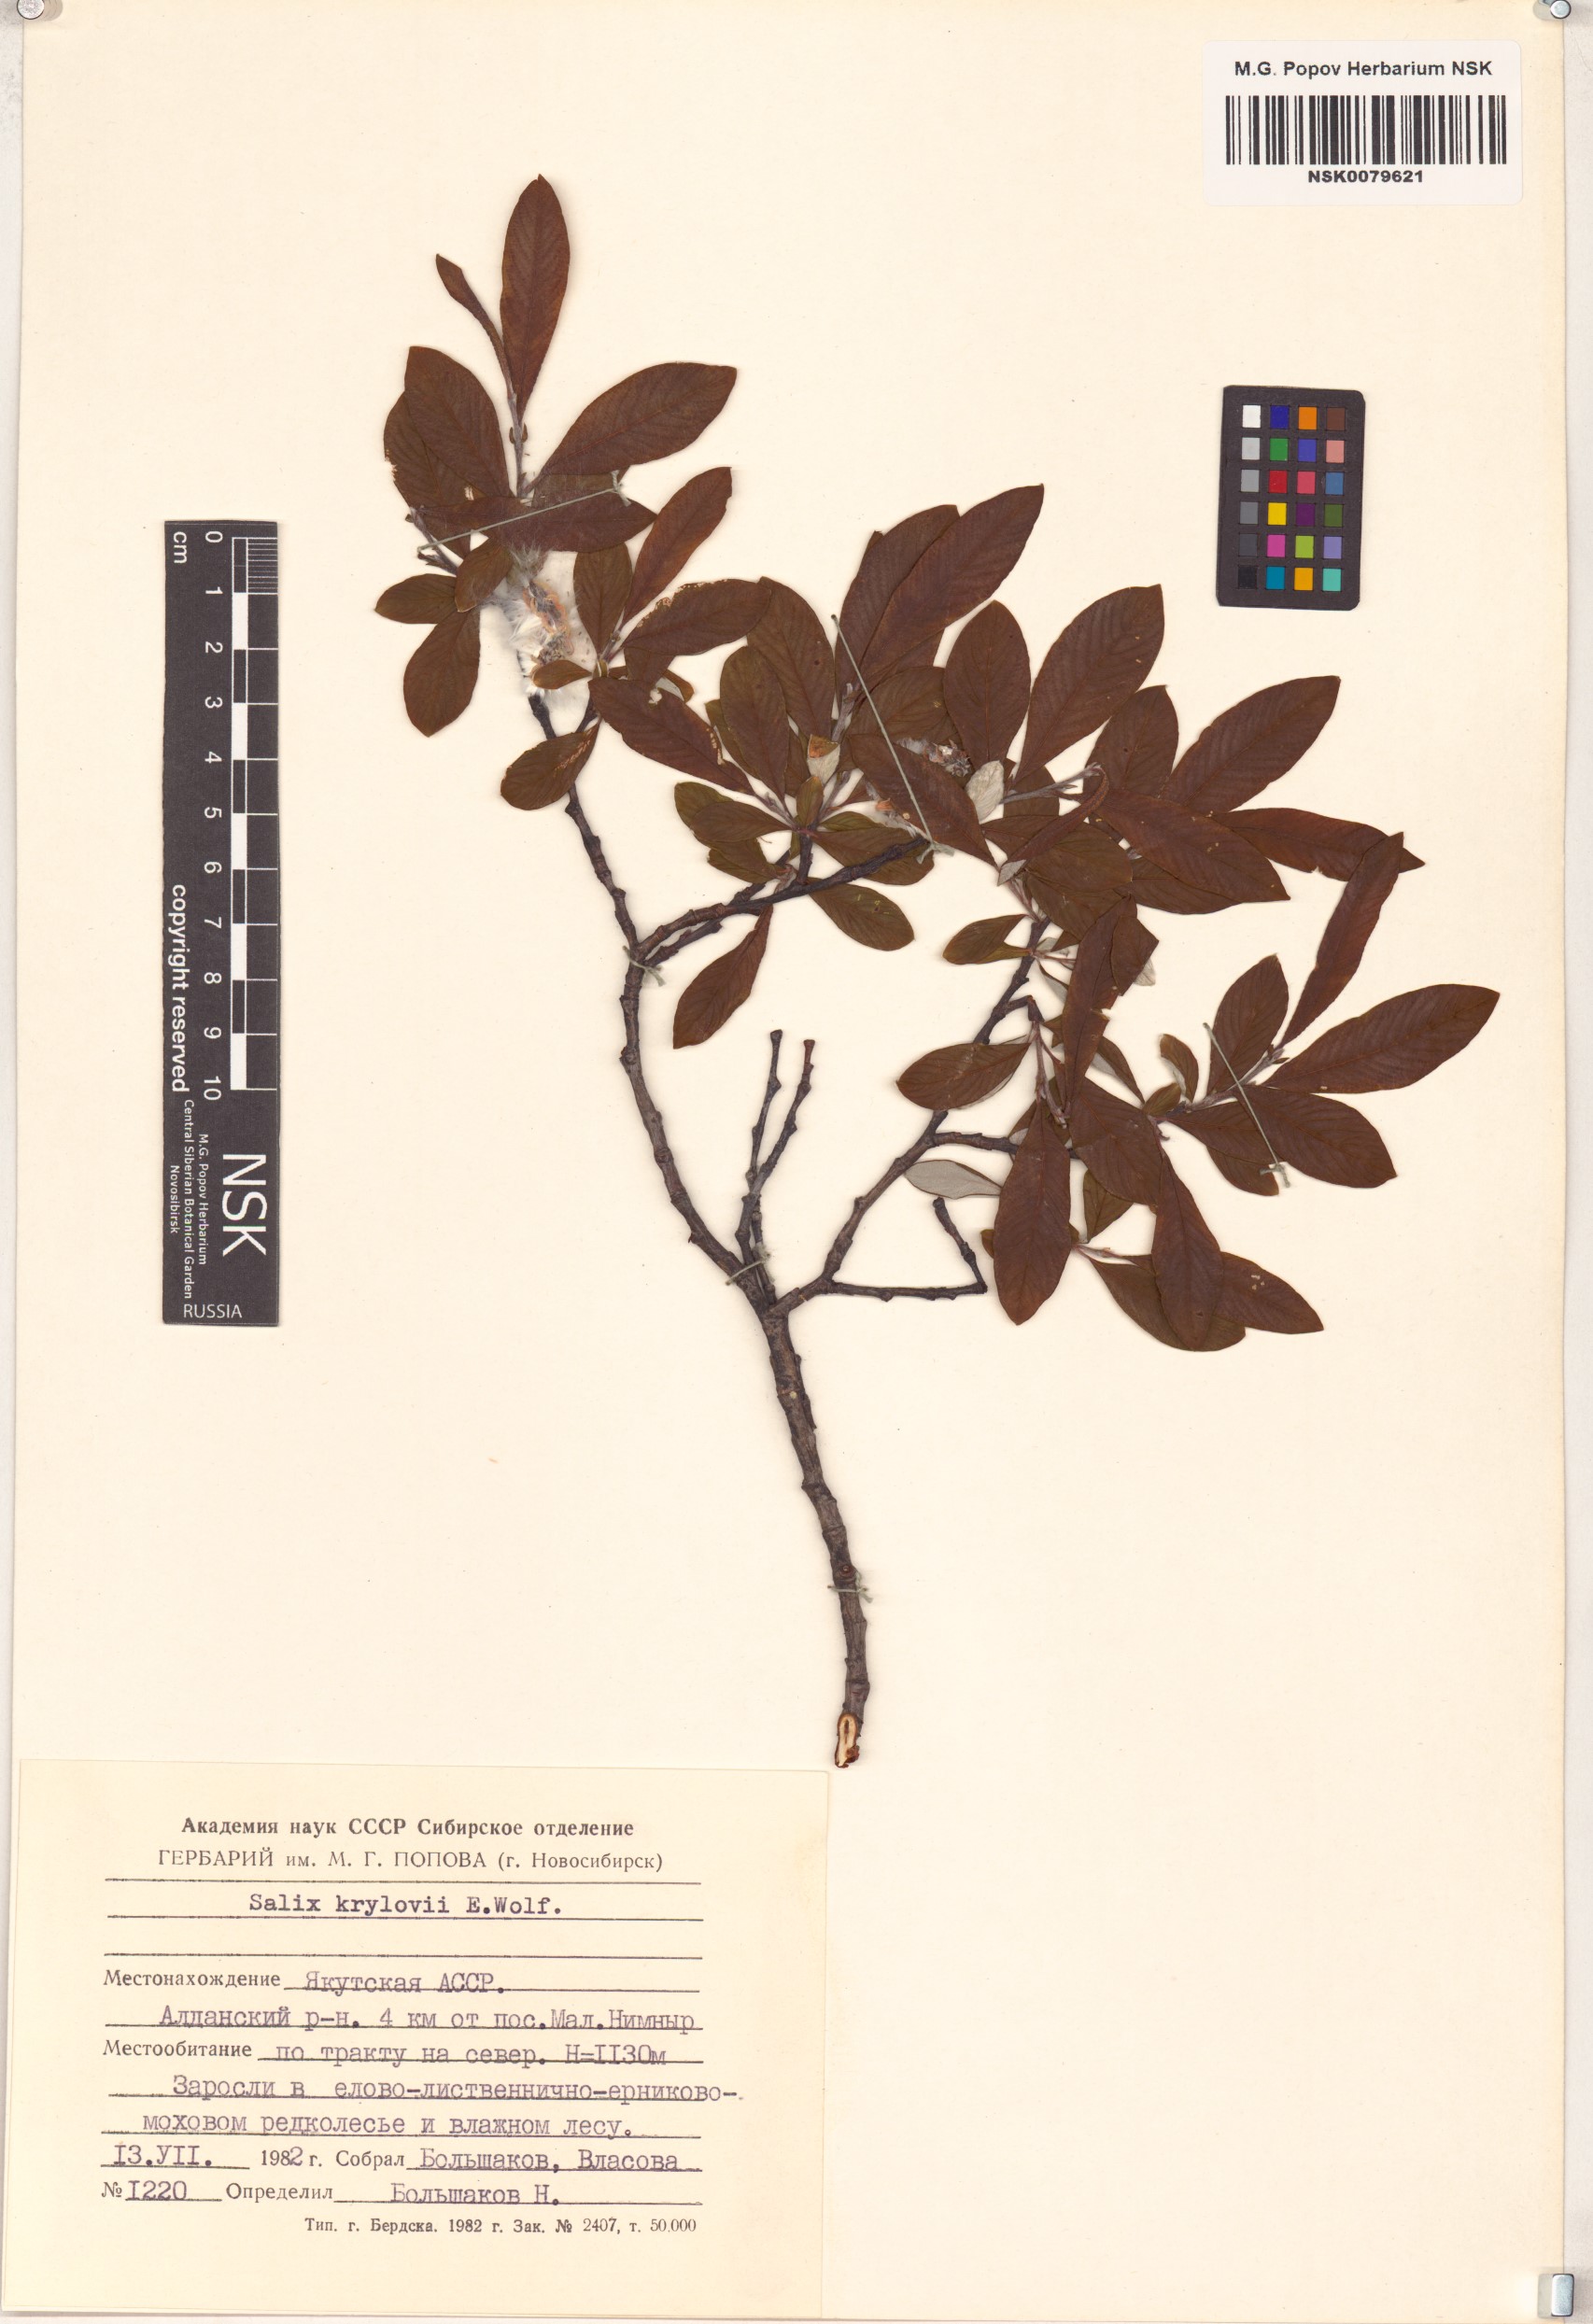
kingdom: Plantae
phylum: Tracheophyta
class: Magnoliopsida
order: Malpighiales
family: Salicaceae
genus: Salix
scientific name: Salix krylovii
